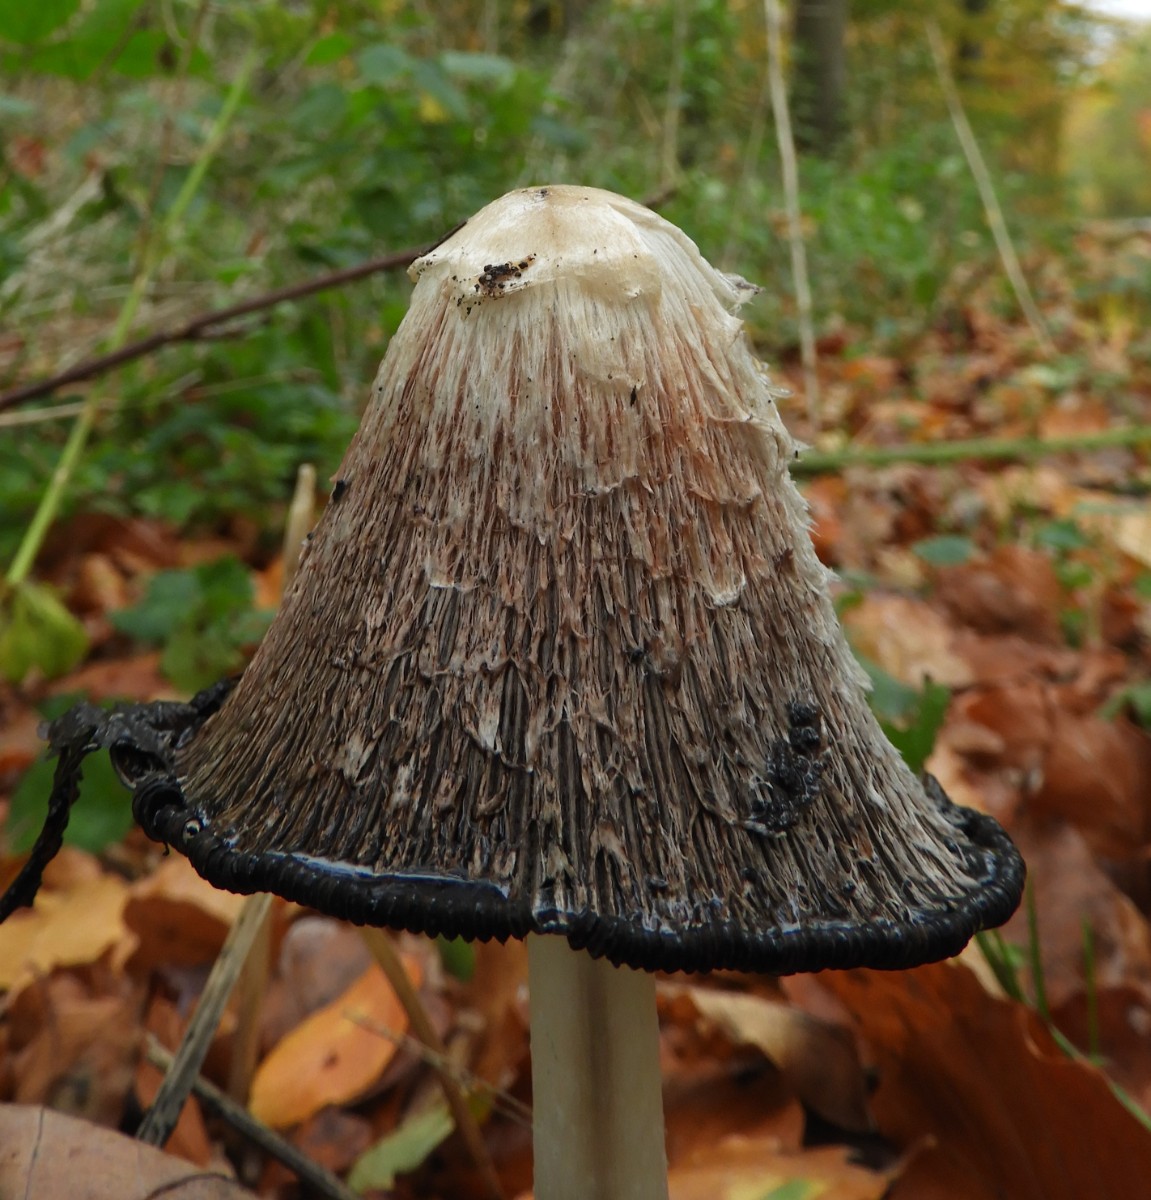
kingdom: Fungi
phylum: Basidiomycota
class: Agaricomycetes
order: Agaricales
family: Agaricaceae
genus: Coprinus
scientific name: Coprinus comatus
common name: stor parykhat
